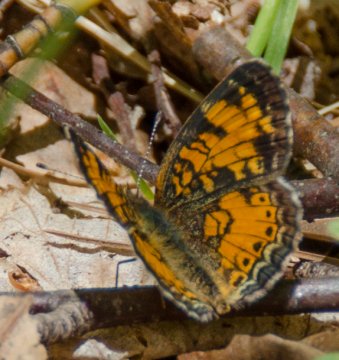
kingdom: Animalia
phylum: Arthropoda
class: Insecta
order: Lepidoptera
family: Nymphalidae
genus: Phyciodes
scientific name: Phyciodes tharos
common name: Northern Crescent
